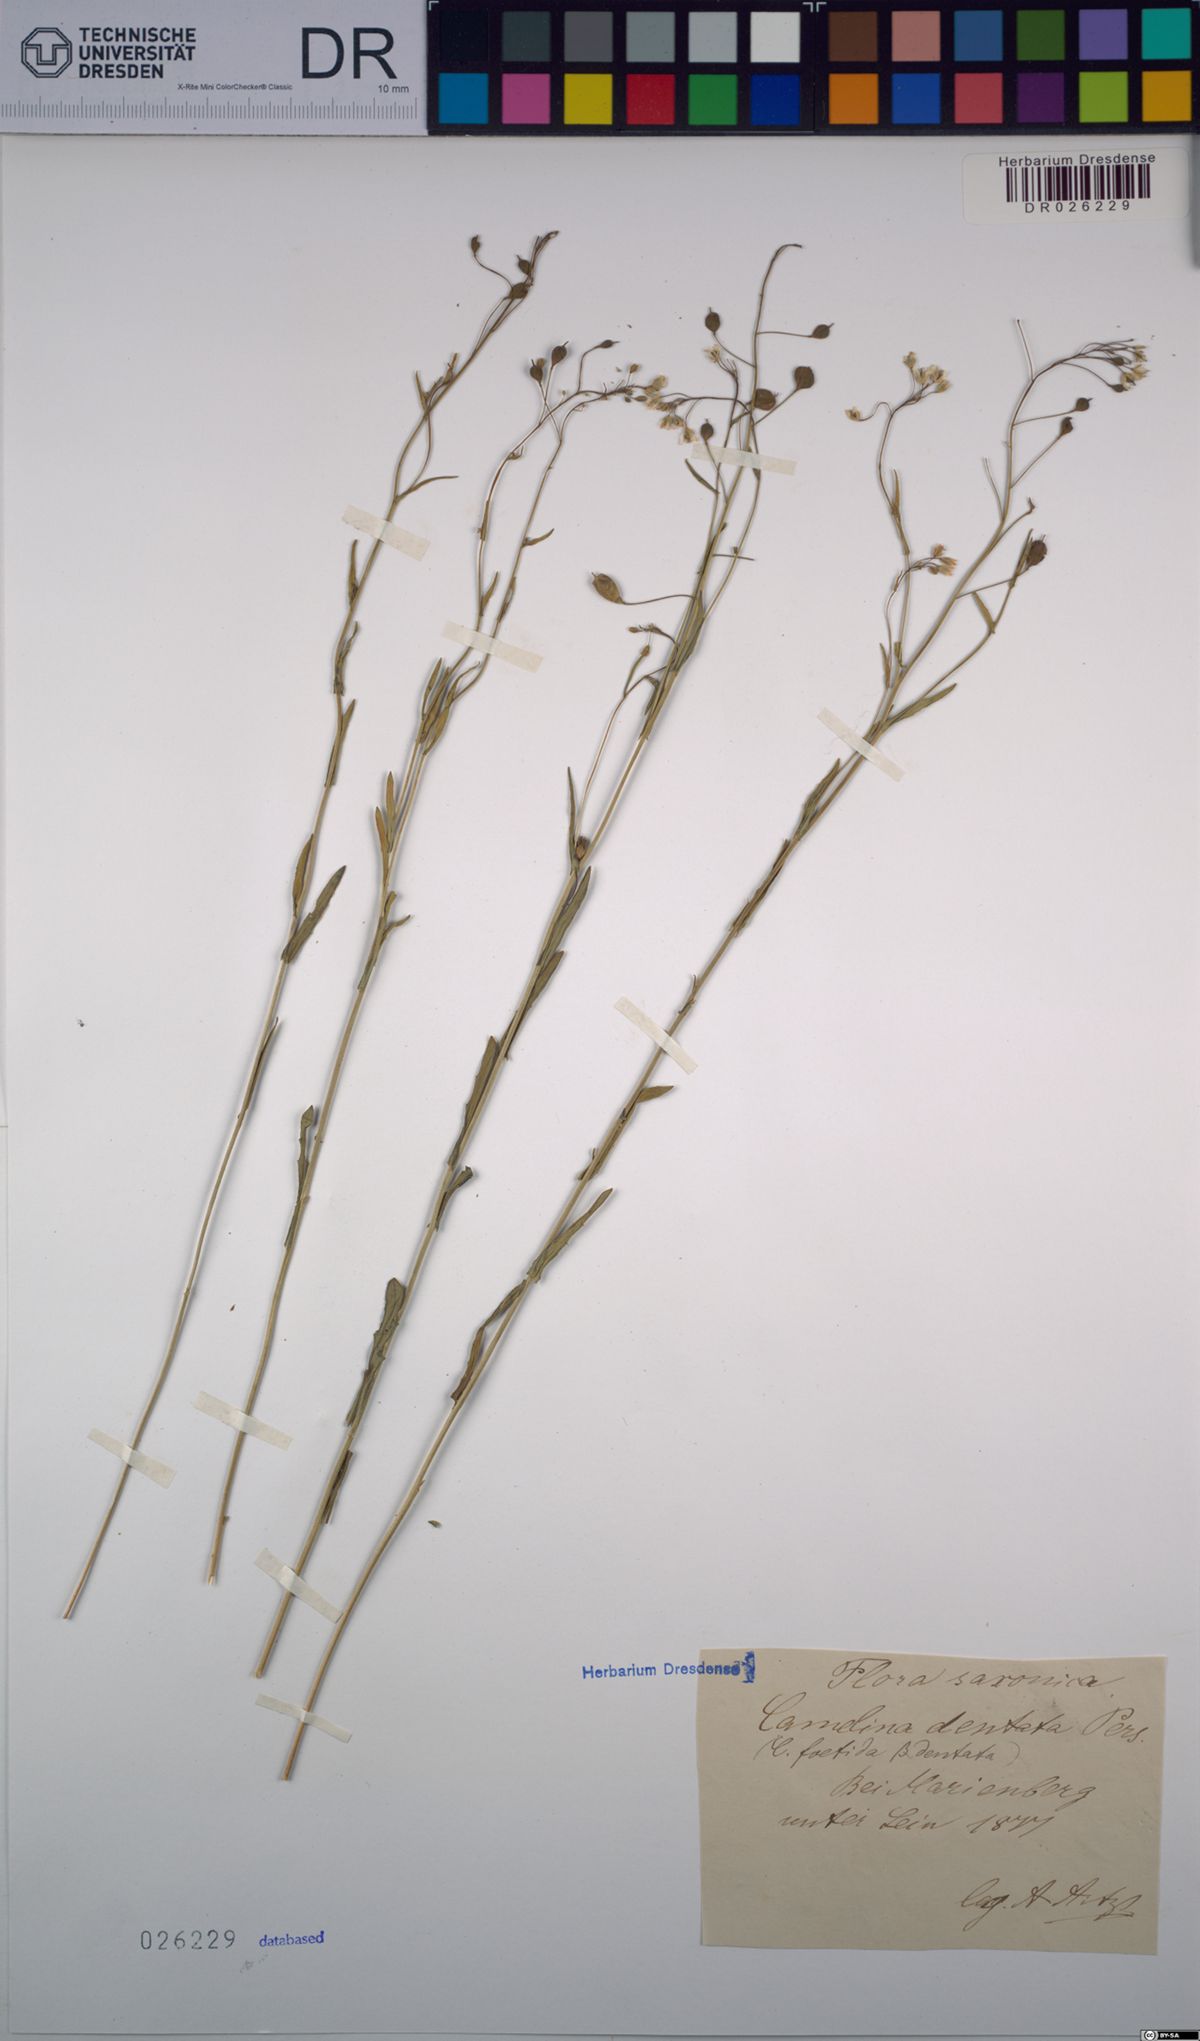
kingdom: Plantae
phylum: Tracheophyta
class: Magnoliopsida
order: Brassicales
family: Brassicaceae
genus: Camelina
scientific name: Camelina alyssum
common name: Gold-of-pleasure
